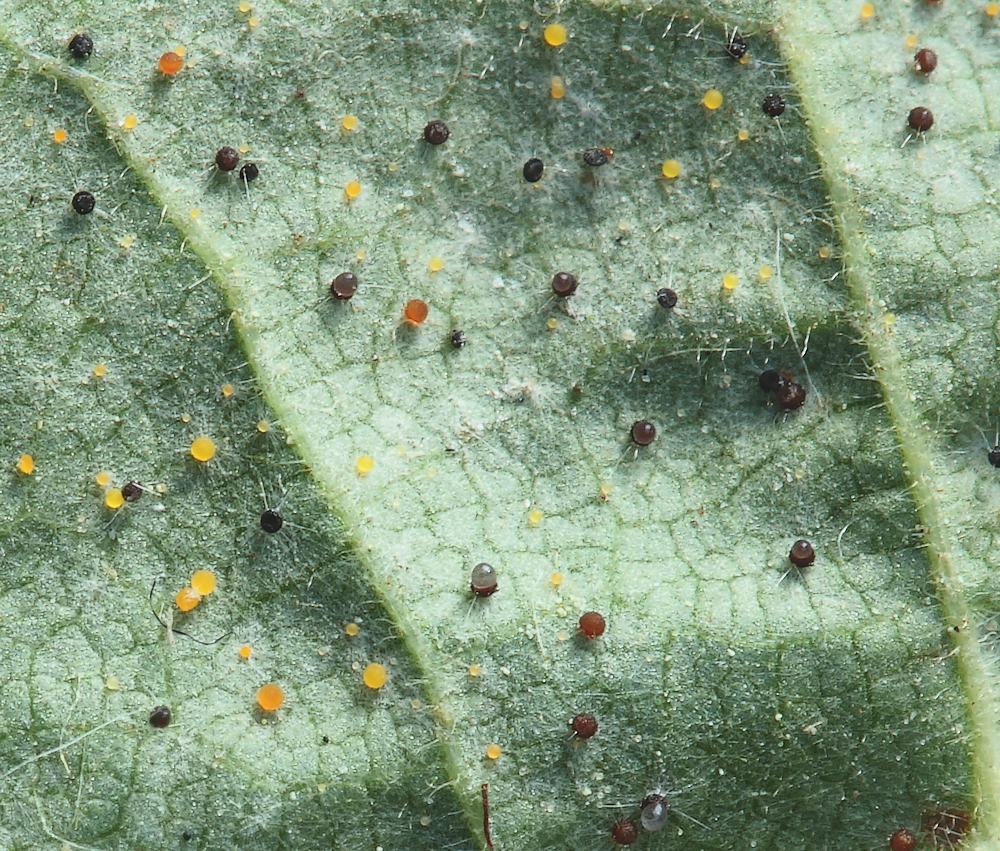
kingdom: Fungi
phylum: Ascomycota
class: Leotiomycetes
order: Helotiales
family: Erysiphaceae
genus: Phyllactinia
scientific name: Phyllactinia guttata
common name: hassel-meldug
